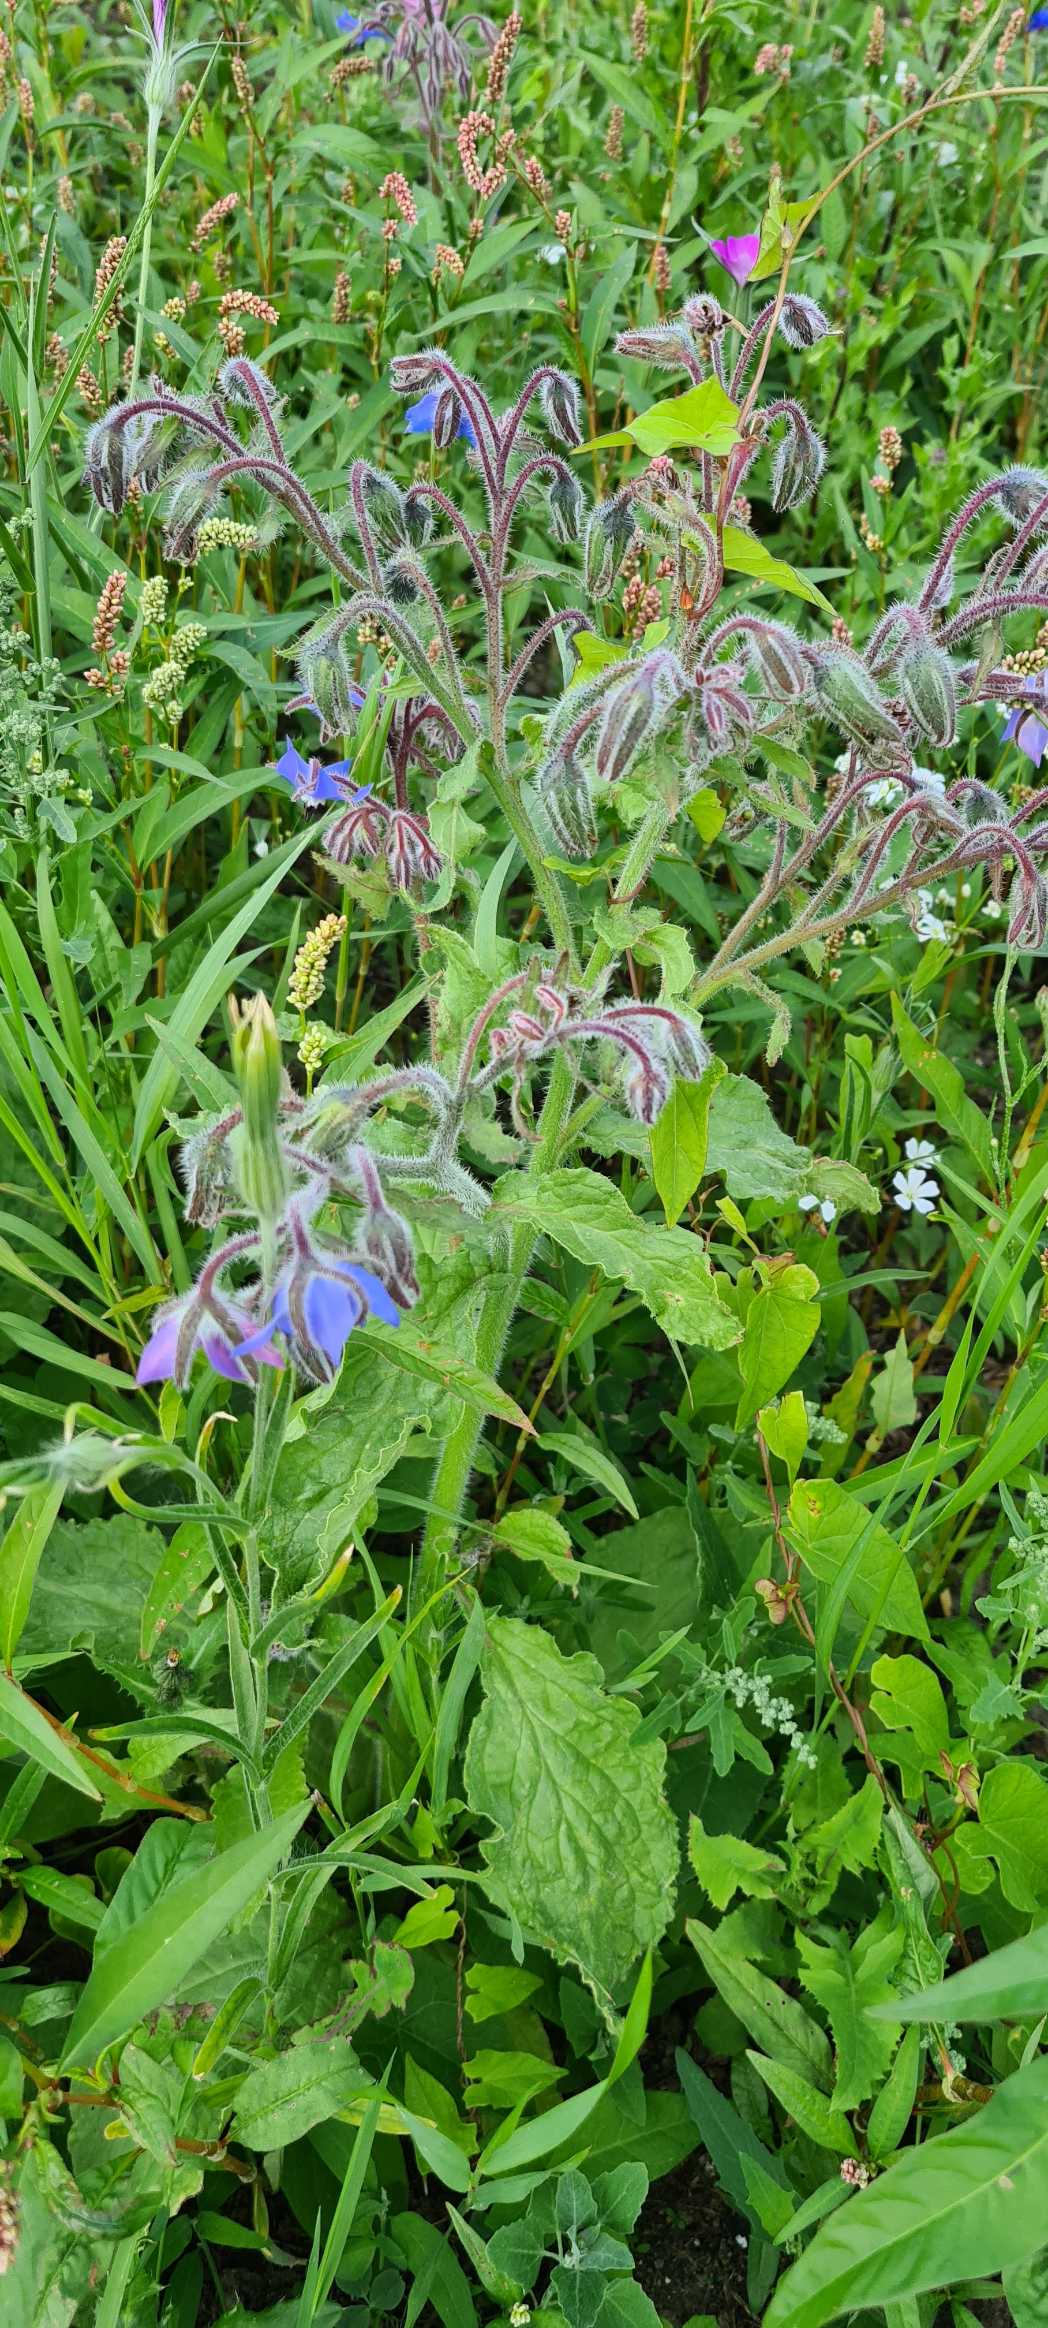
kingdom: Plantae
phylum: Tracheophyta
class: Magnoliopsida
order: Boraginales
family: Boraginaceae
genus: Borago
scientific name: Borago officinalis
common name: Hjulkrone
